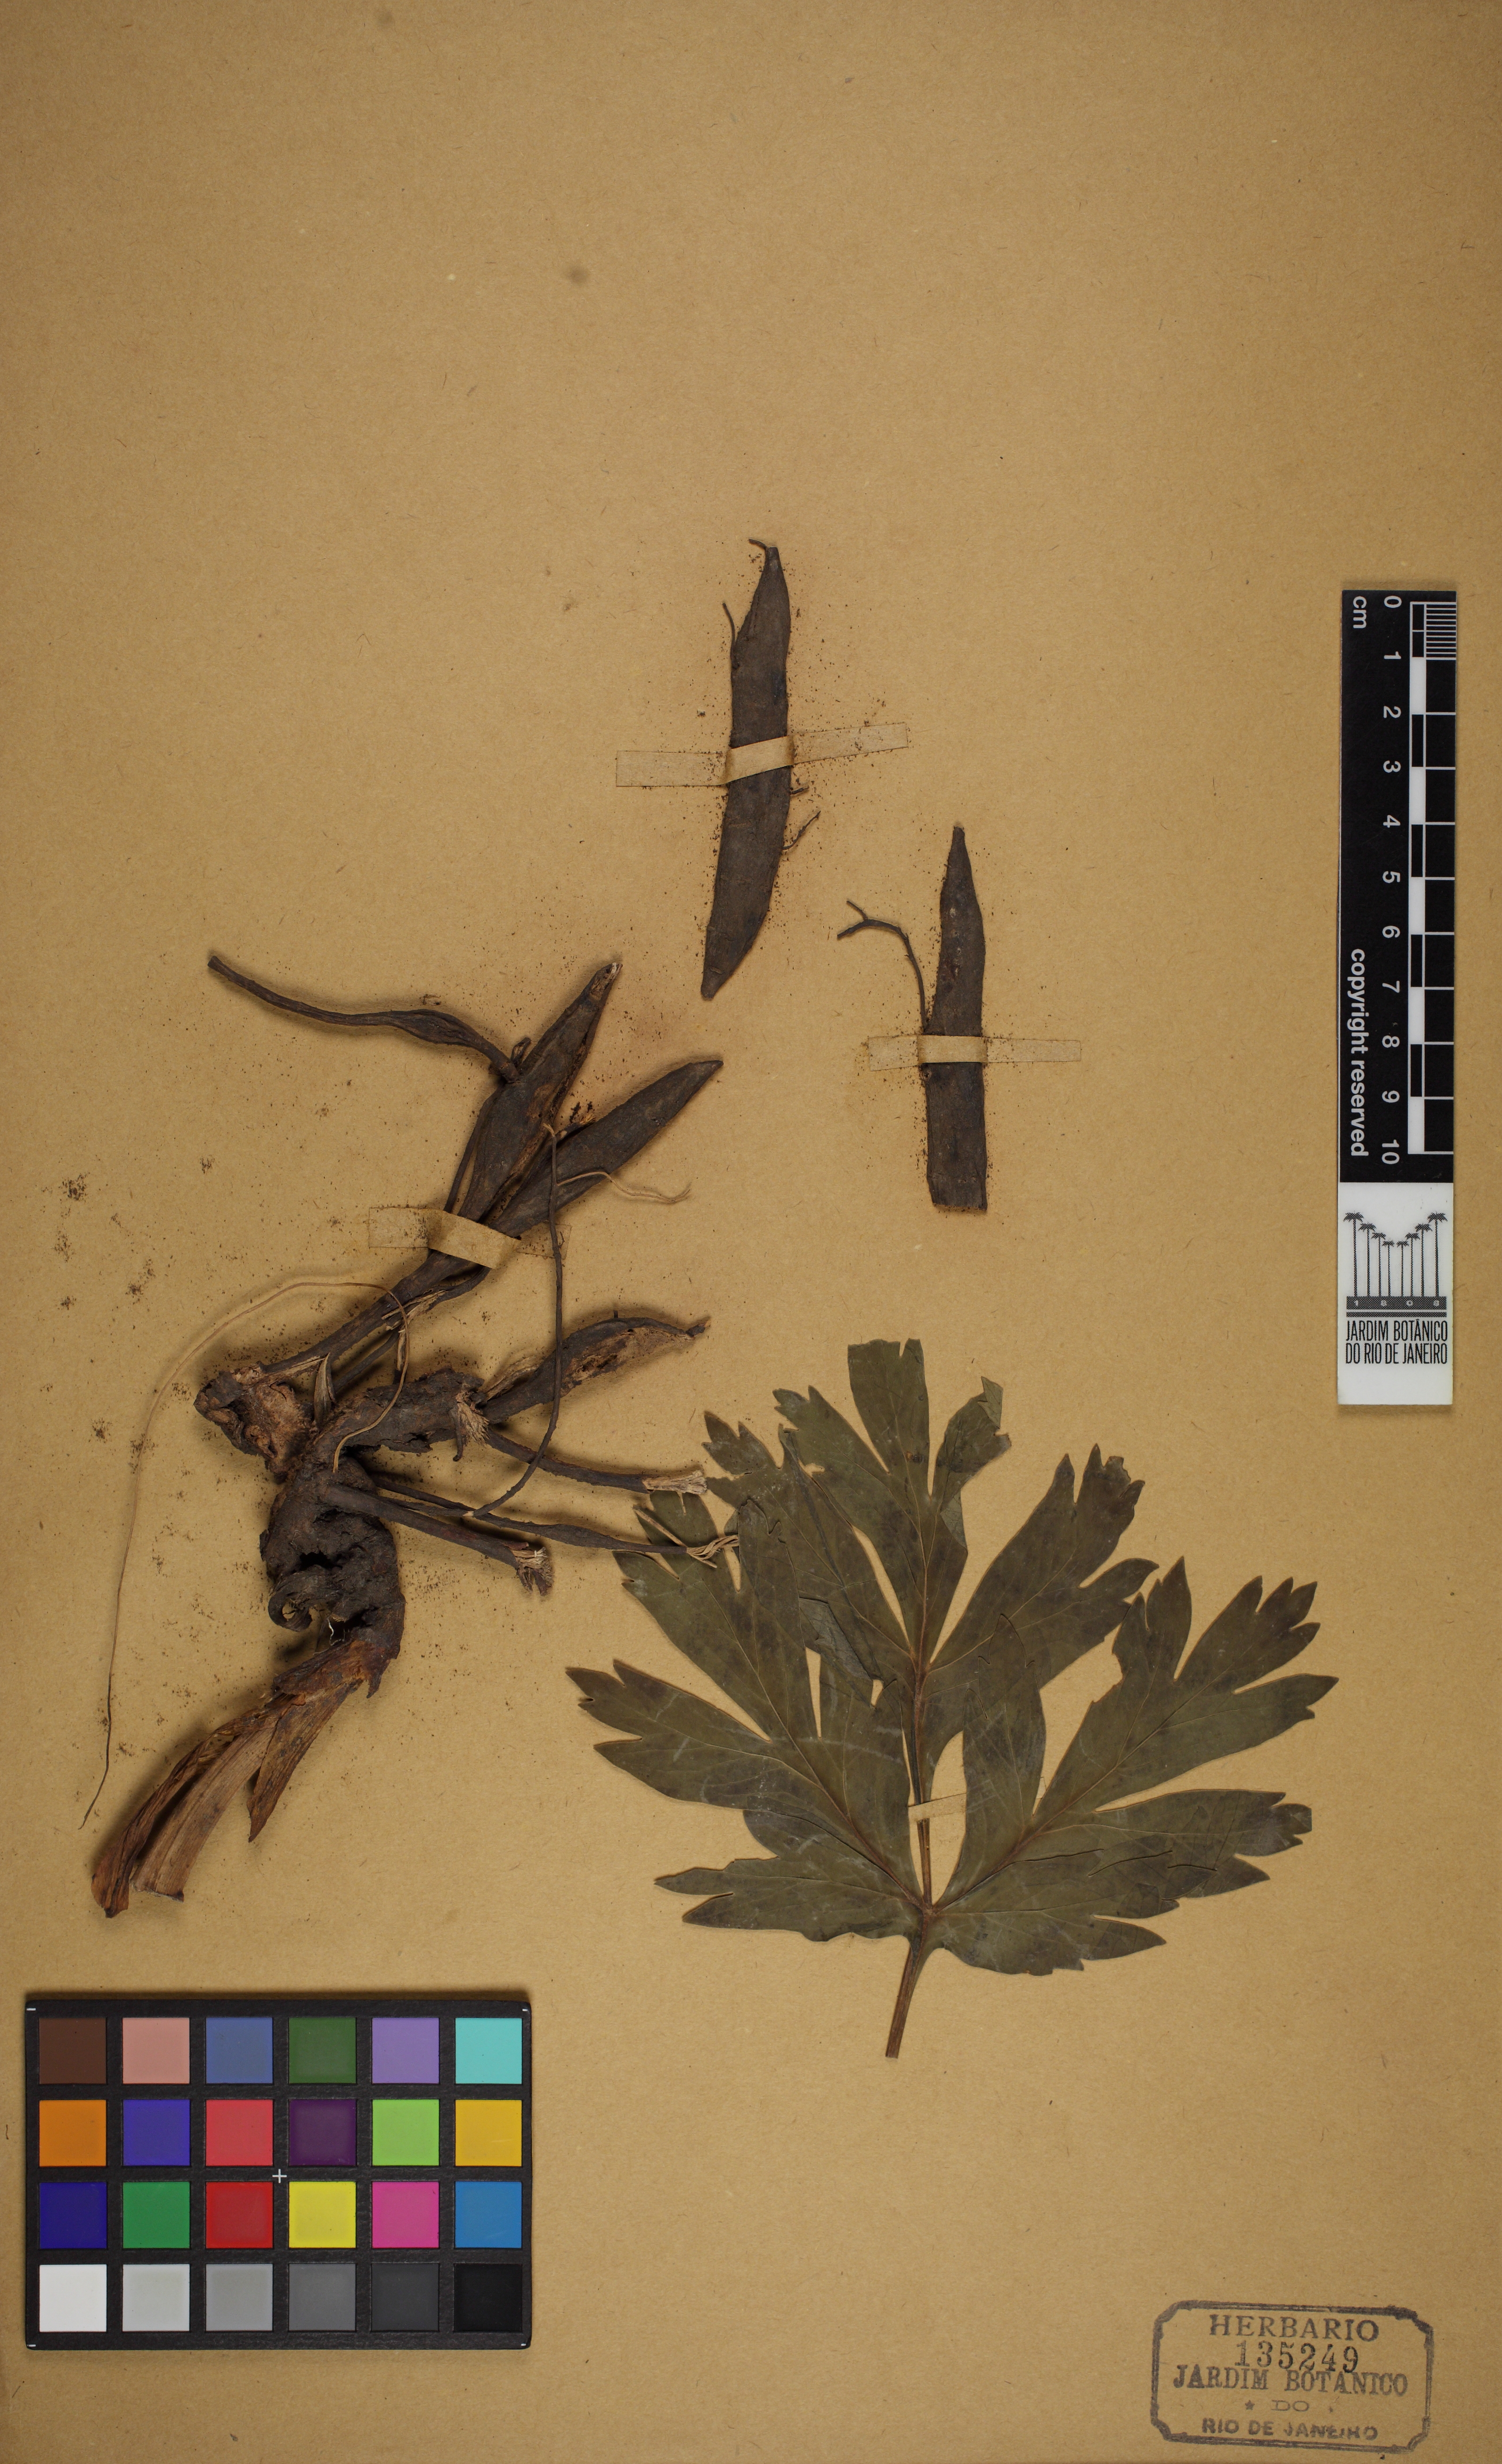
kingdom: Plantae
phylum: Tracheophyta
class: Magnoliopsida
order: Saxifragales
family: Paeoniaceae
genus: Paeonia
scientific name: Paeonia peregrina
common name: Scarlet peony
